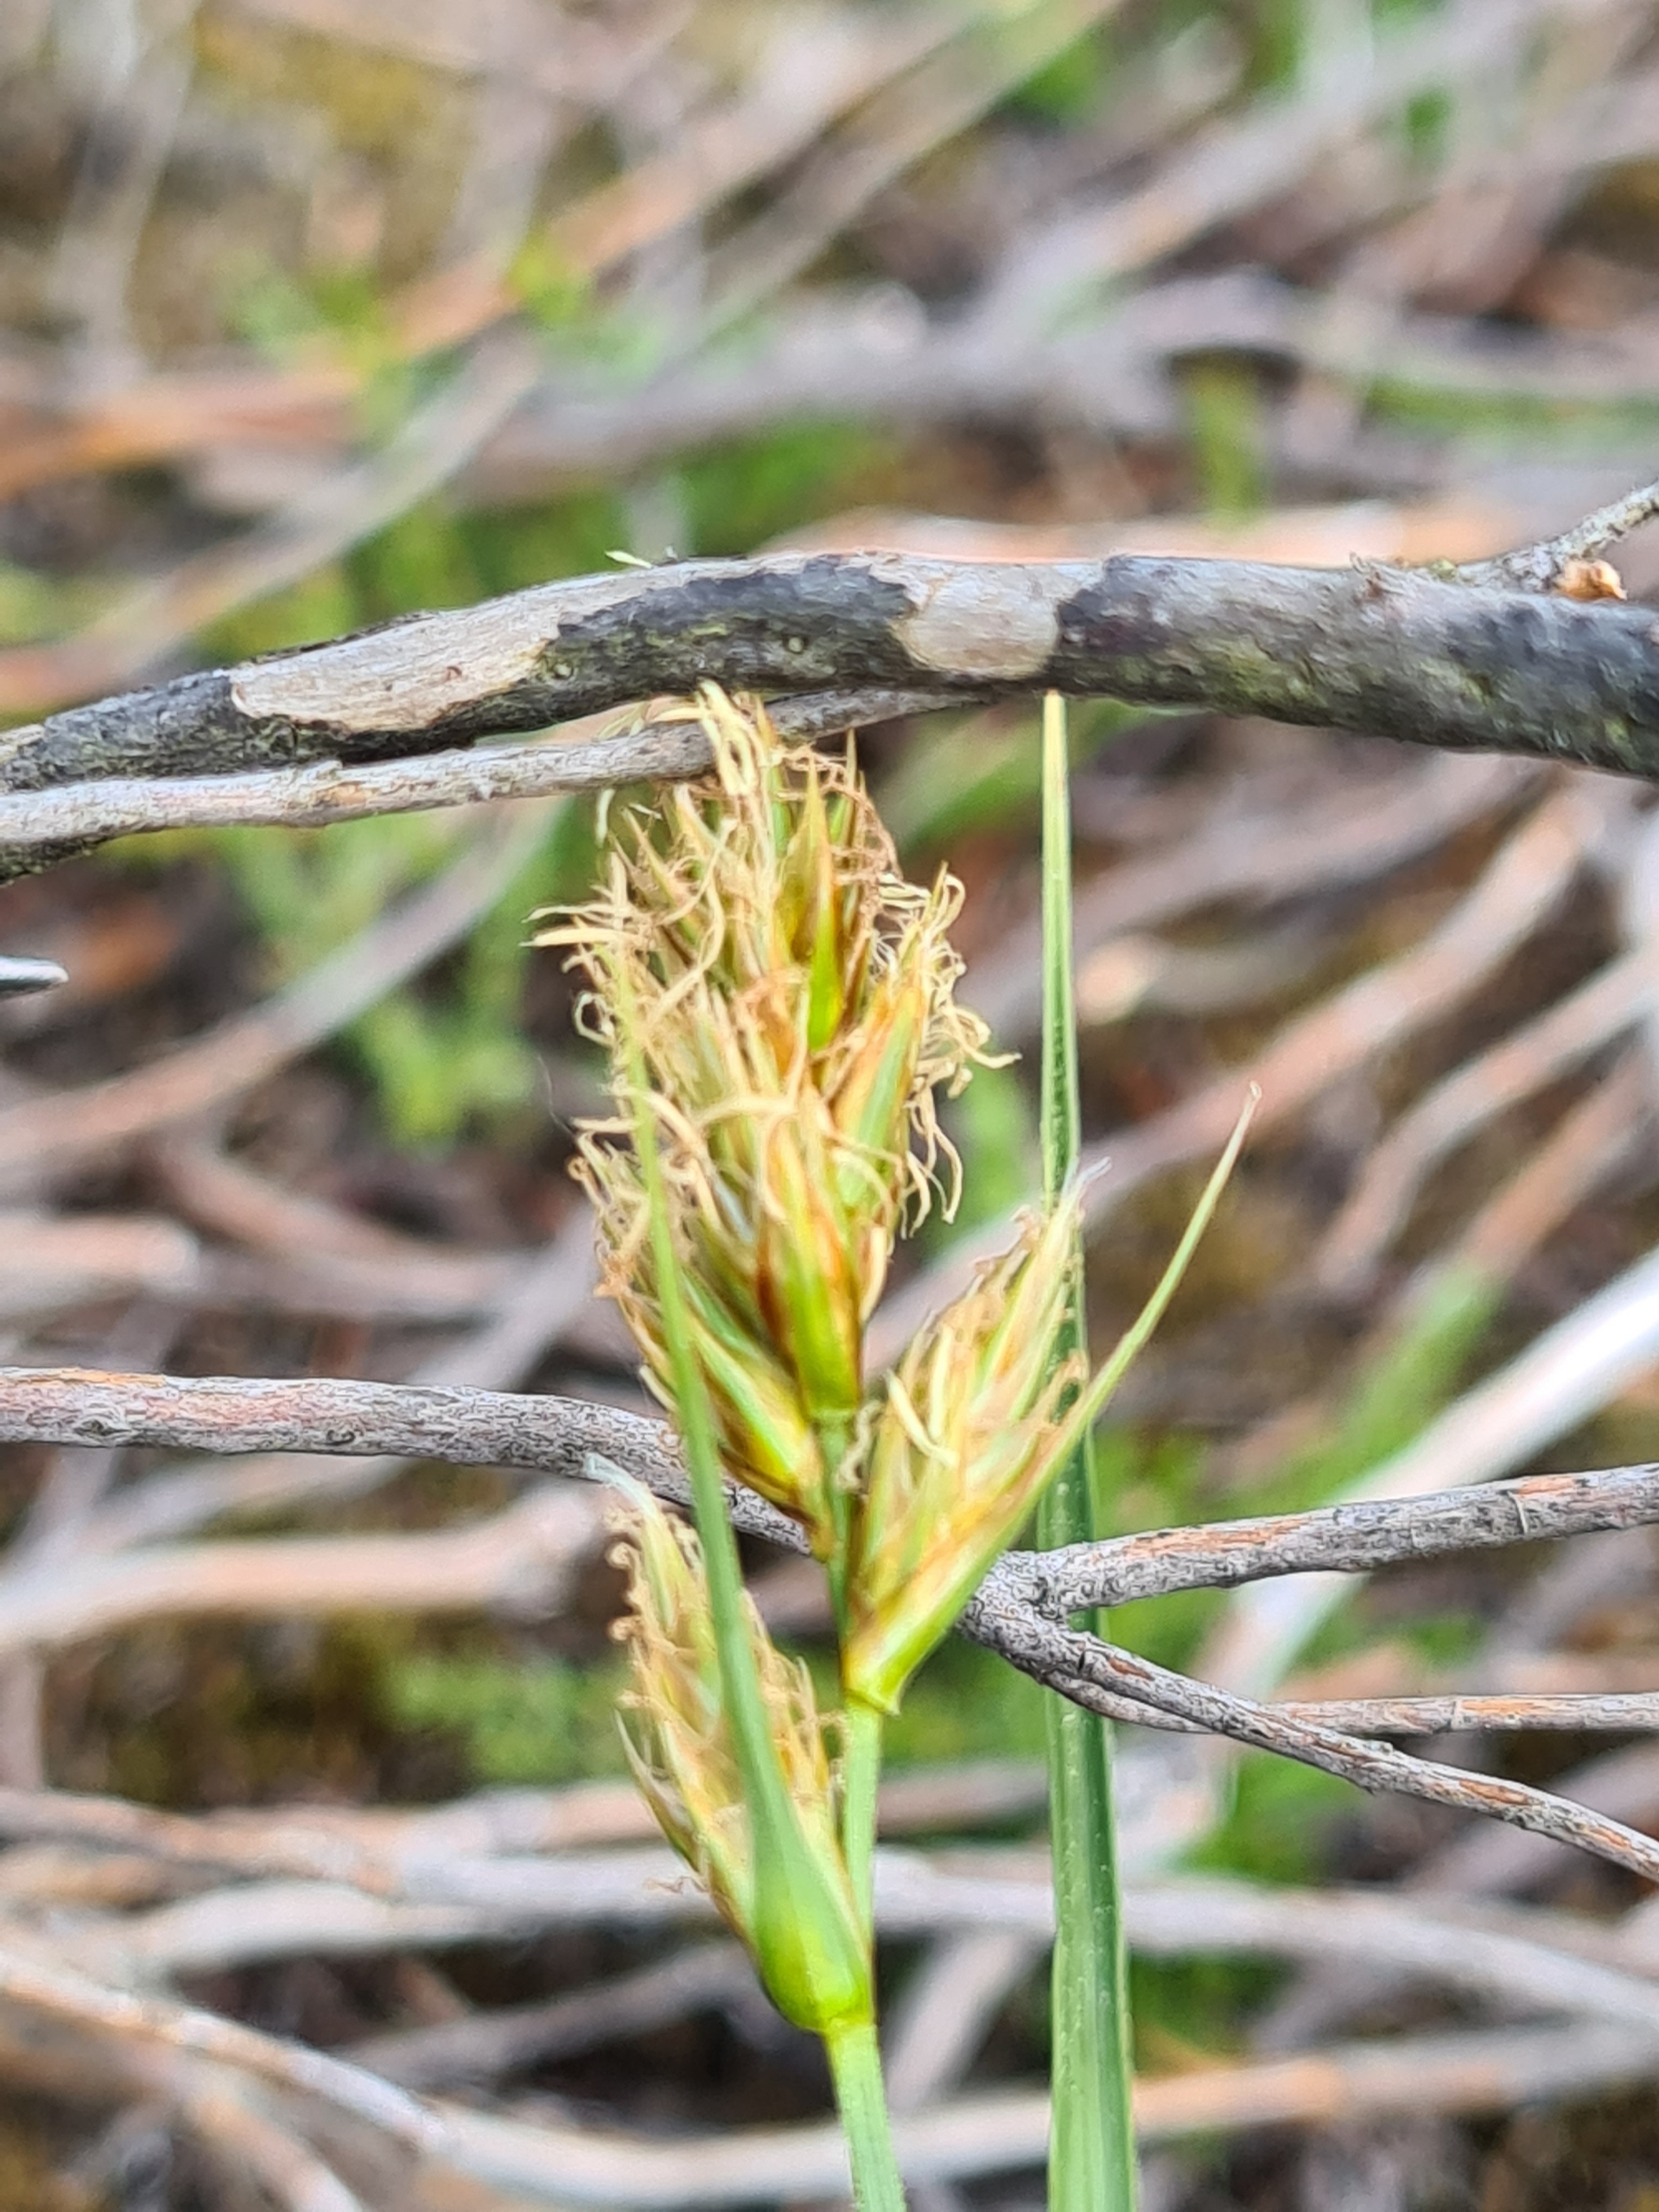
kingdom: Plantae
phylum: Tracheophyta
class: Liliopsida
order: Poales
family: Cyperaceae
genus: Carex
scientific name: Carex arenaria
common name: Sand-star
